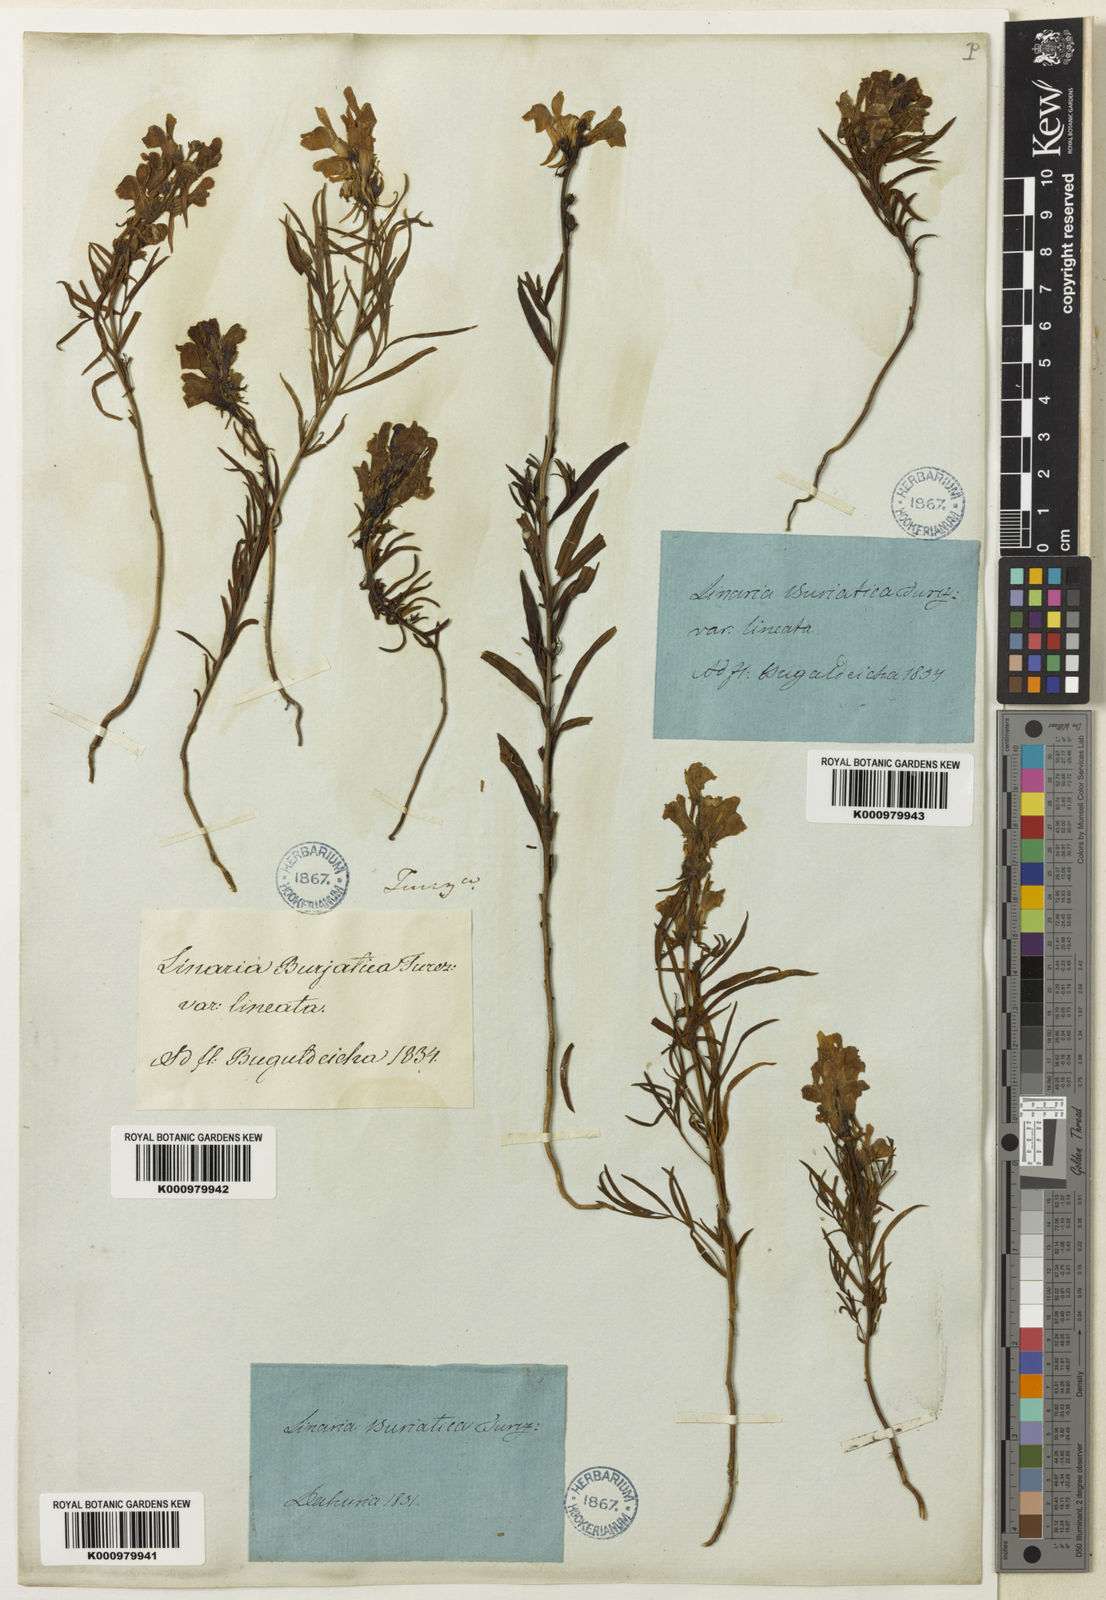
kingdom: Plantae
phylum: Tracheophyta
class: Magnoliopsida
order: Lamiales
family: Plantaginaceae
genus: Linaria
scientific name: Linaria
